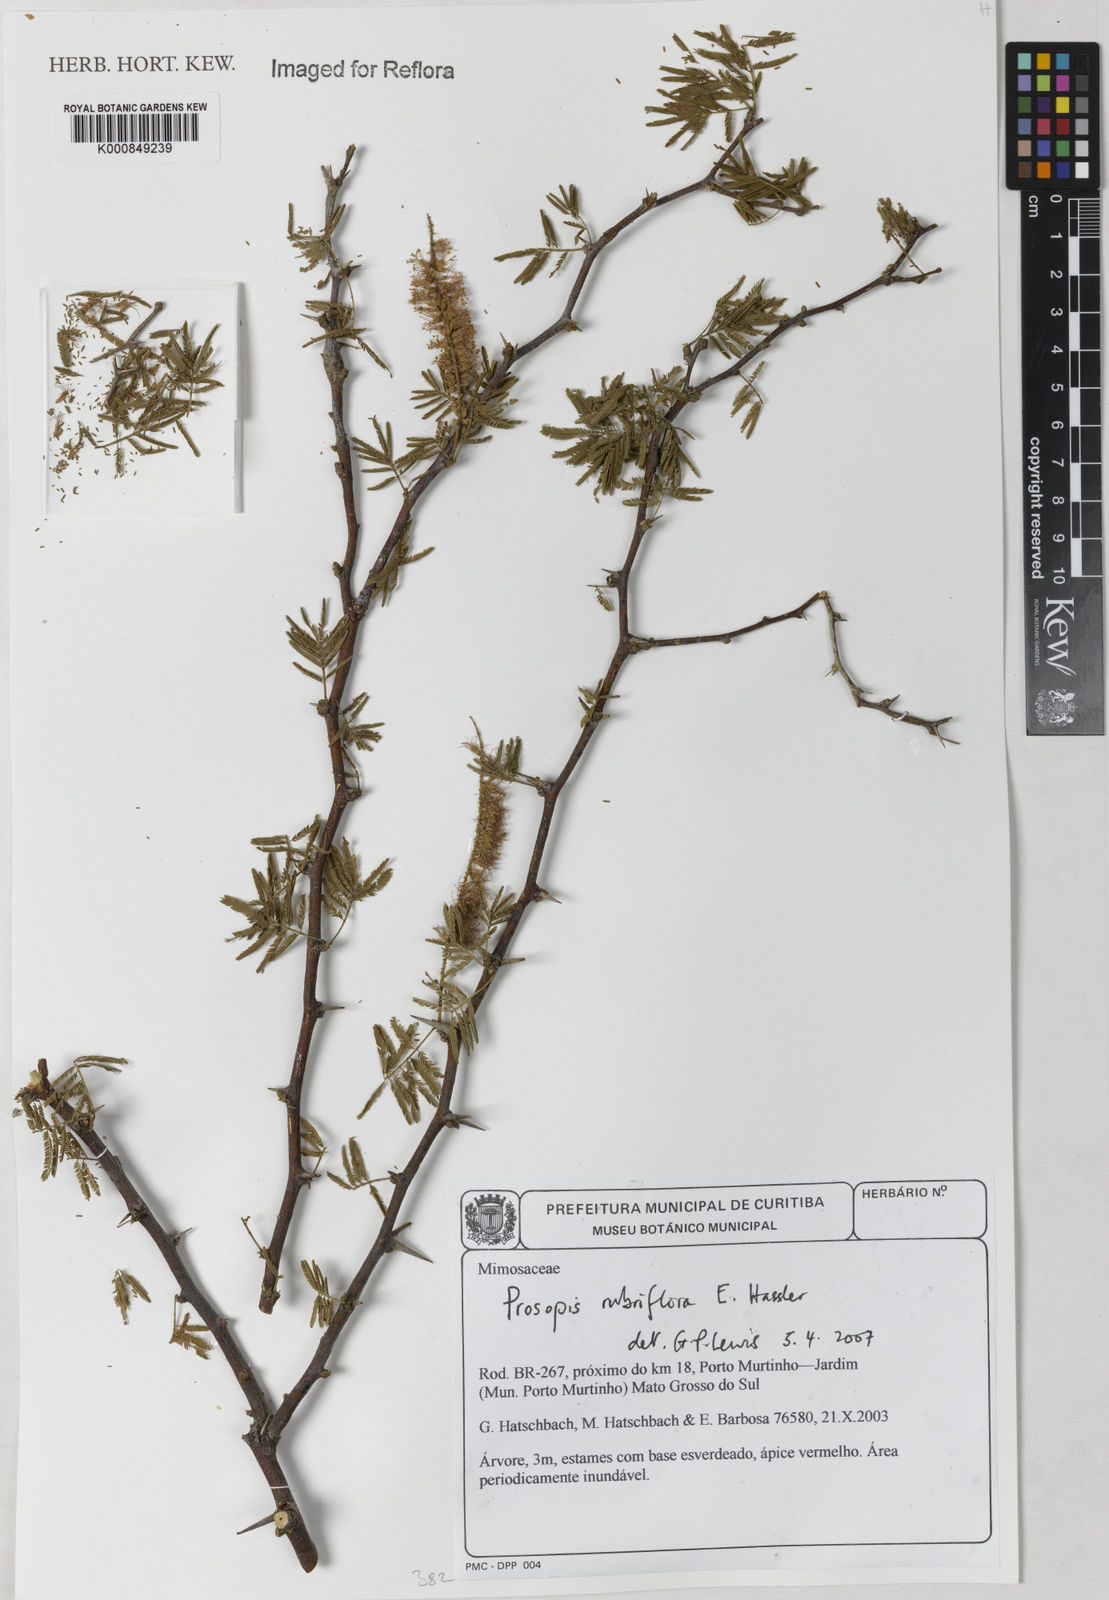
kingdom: Plantae
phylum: Tracheophyta
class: Magnoliopsida
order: Fabales
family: Fabaceae
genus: Prosopis
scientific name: Prosopis rubriflora
